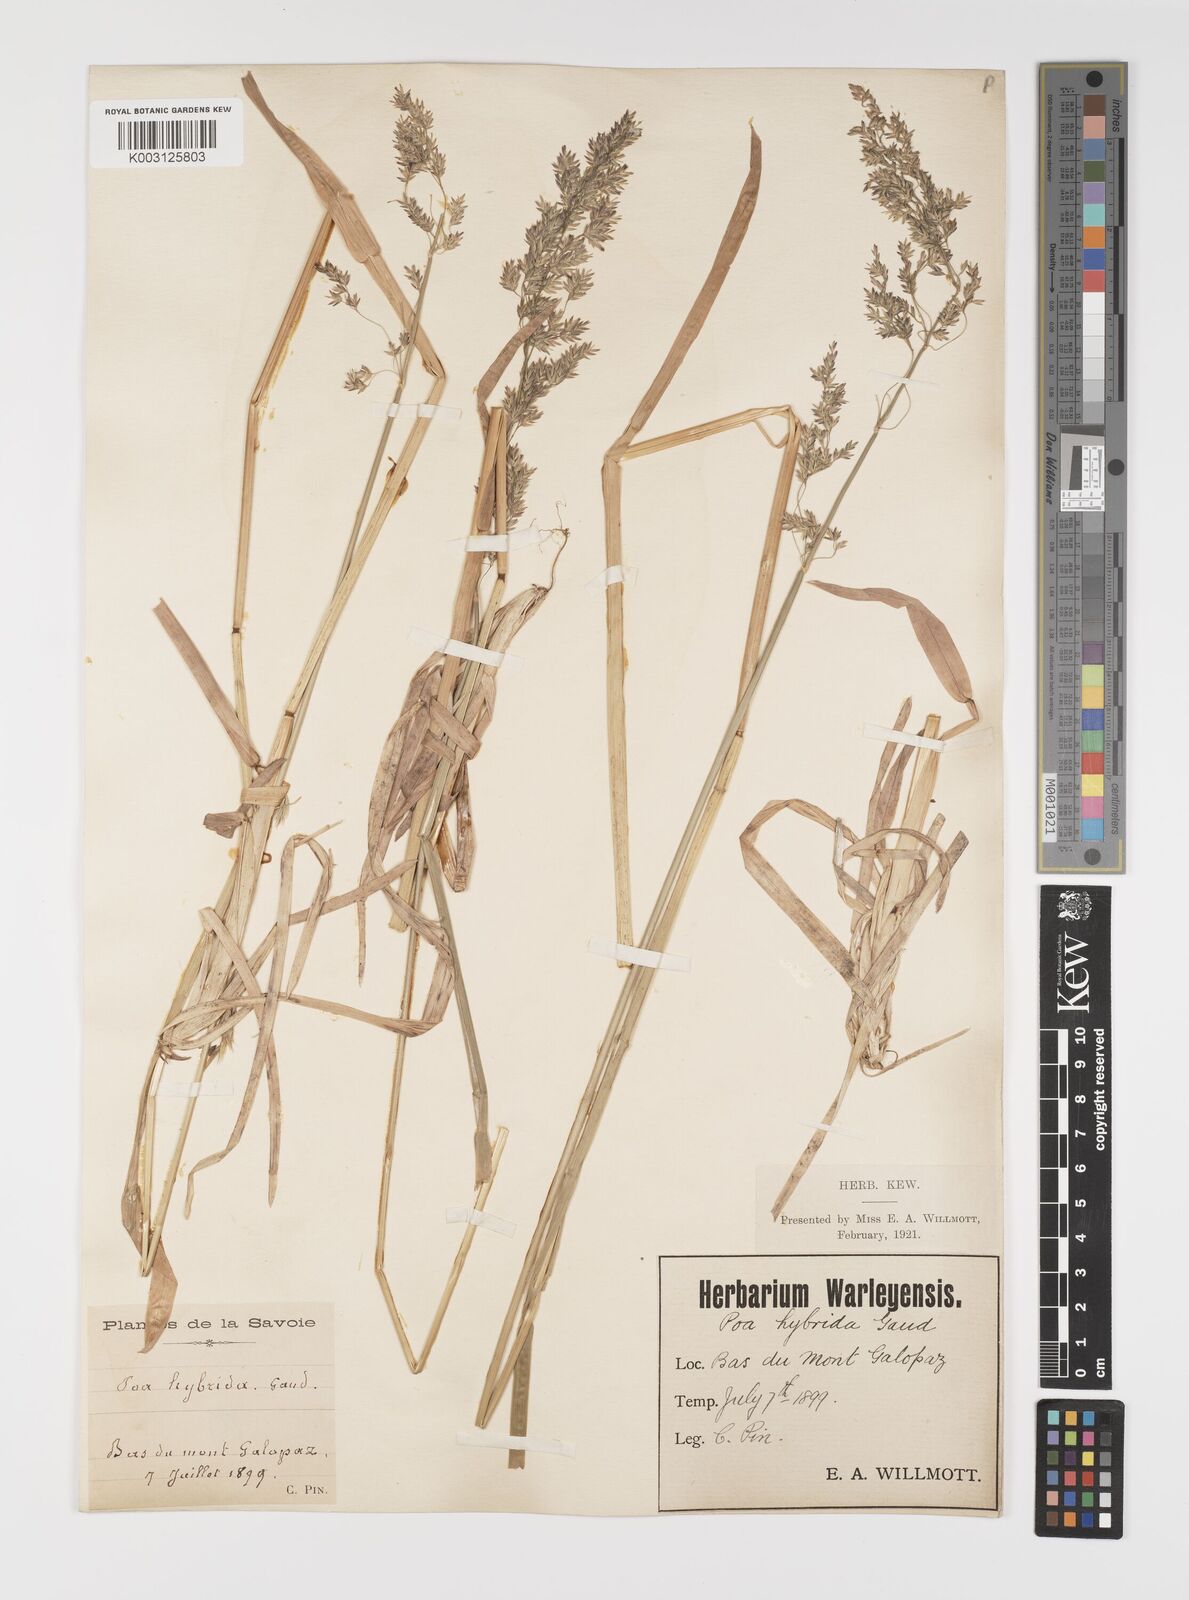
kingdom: Plantae
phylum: Tracheophyta
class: Liliopsida
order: Poales
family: Poaceae
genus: Poa
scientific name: Poa hybrida
